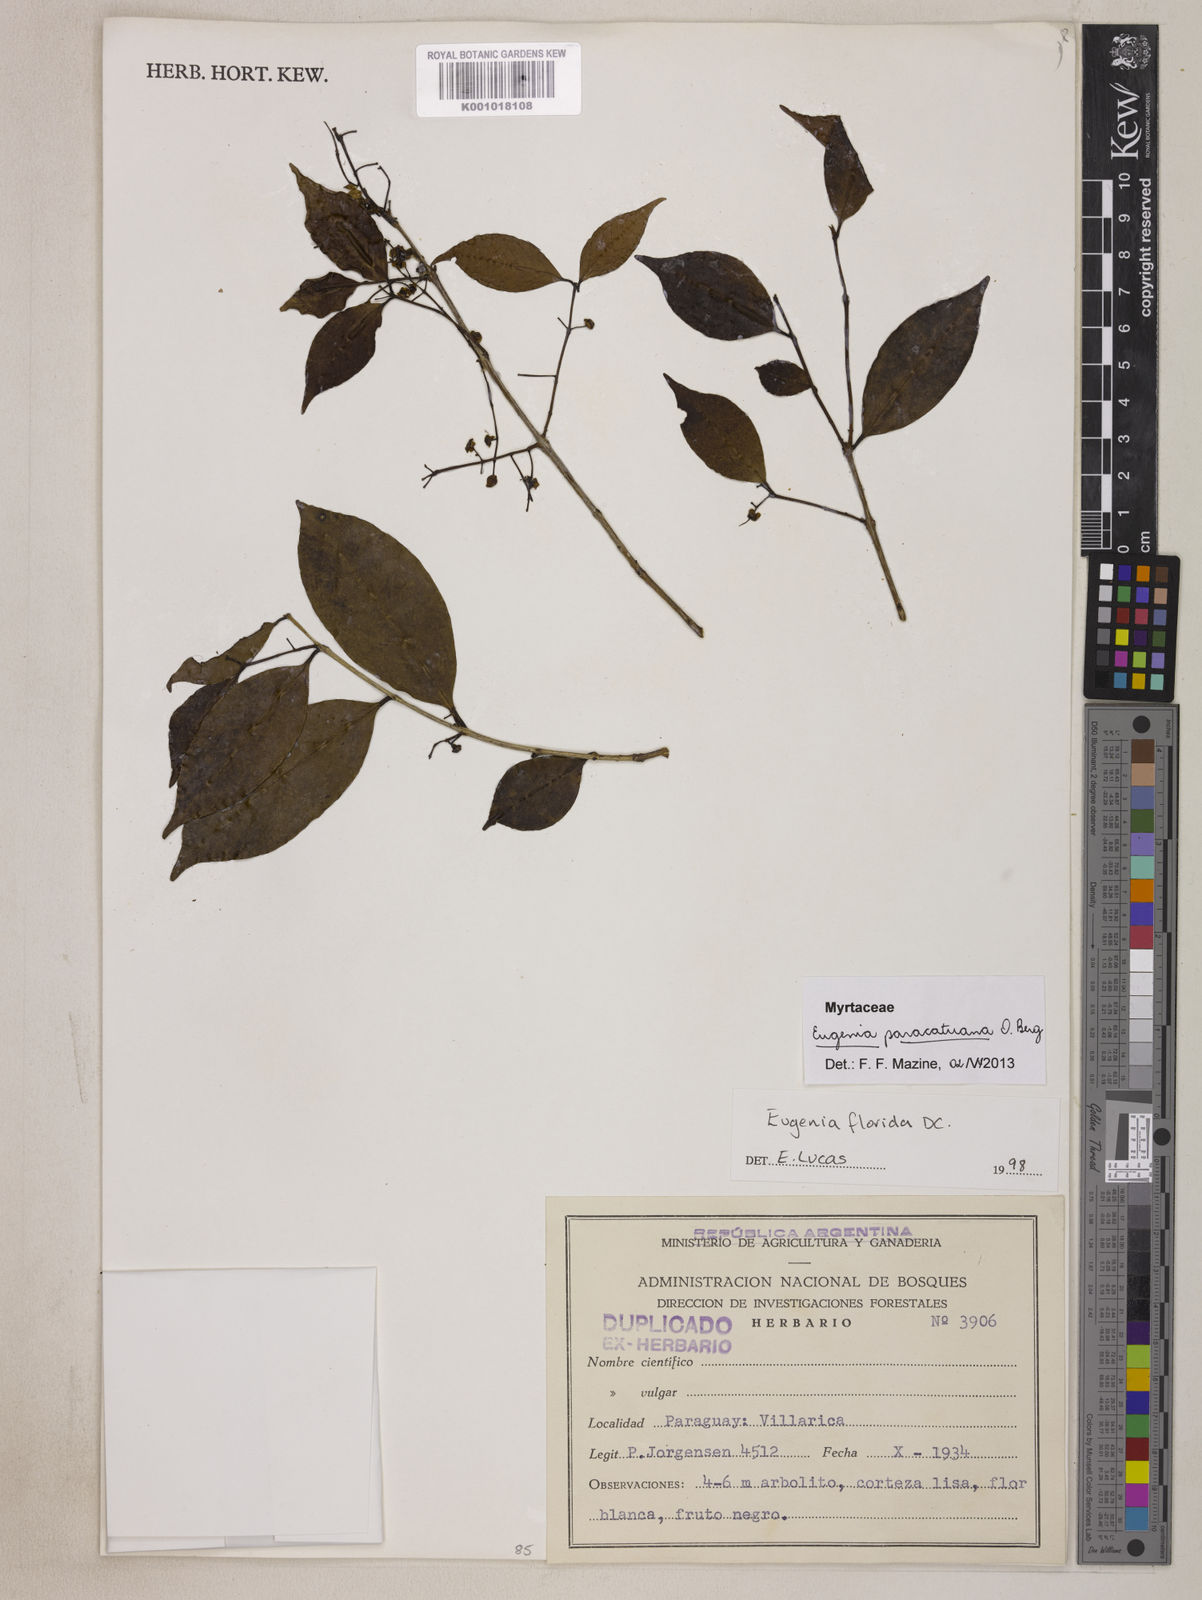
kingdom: Plantae
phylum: Tracheophyta
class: Magnoliopsida
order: Myrtales
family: Myrtaceae
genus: Eugenia
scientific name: Eugenia moraviana
